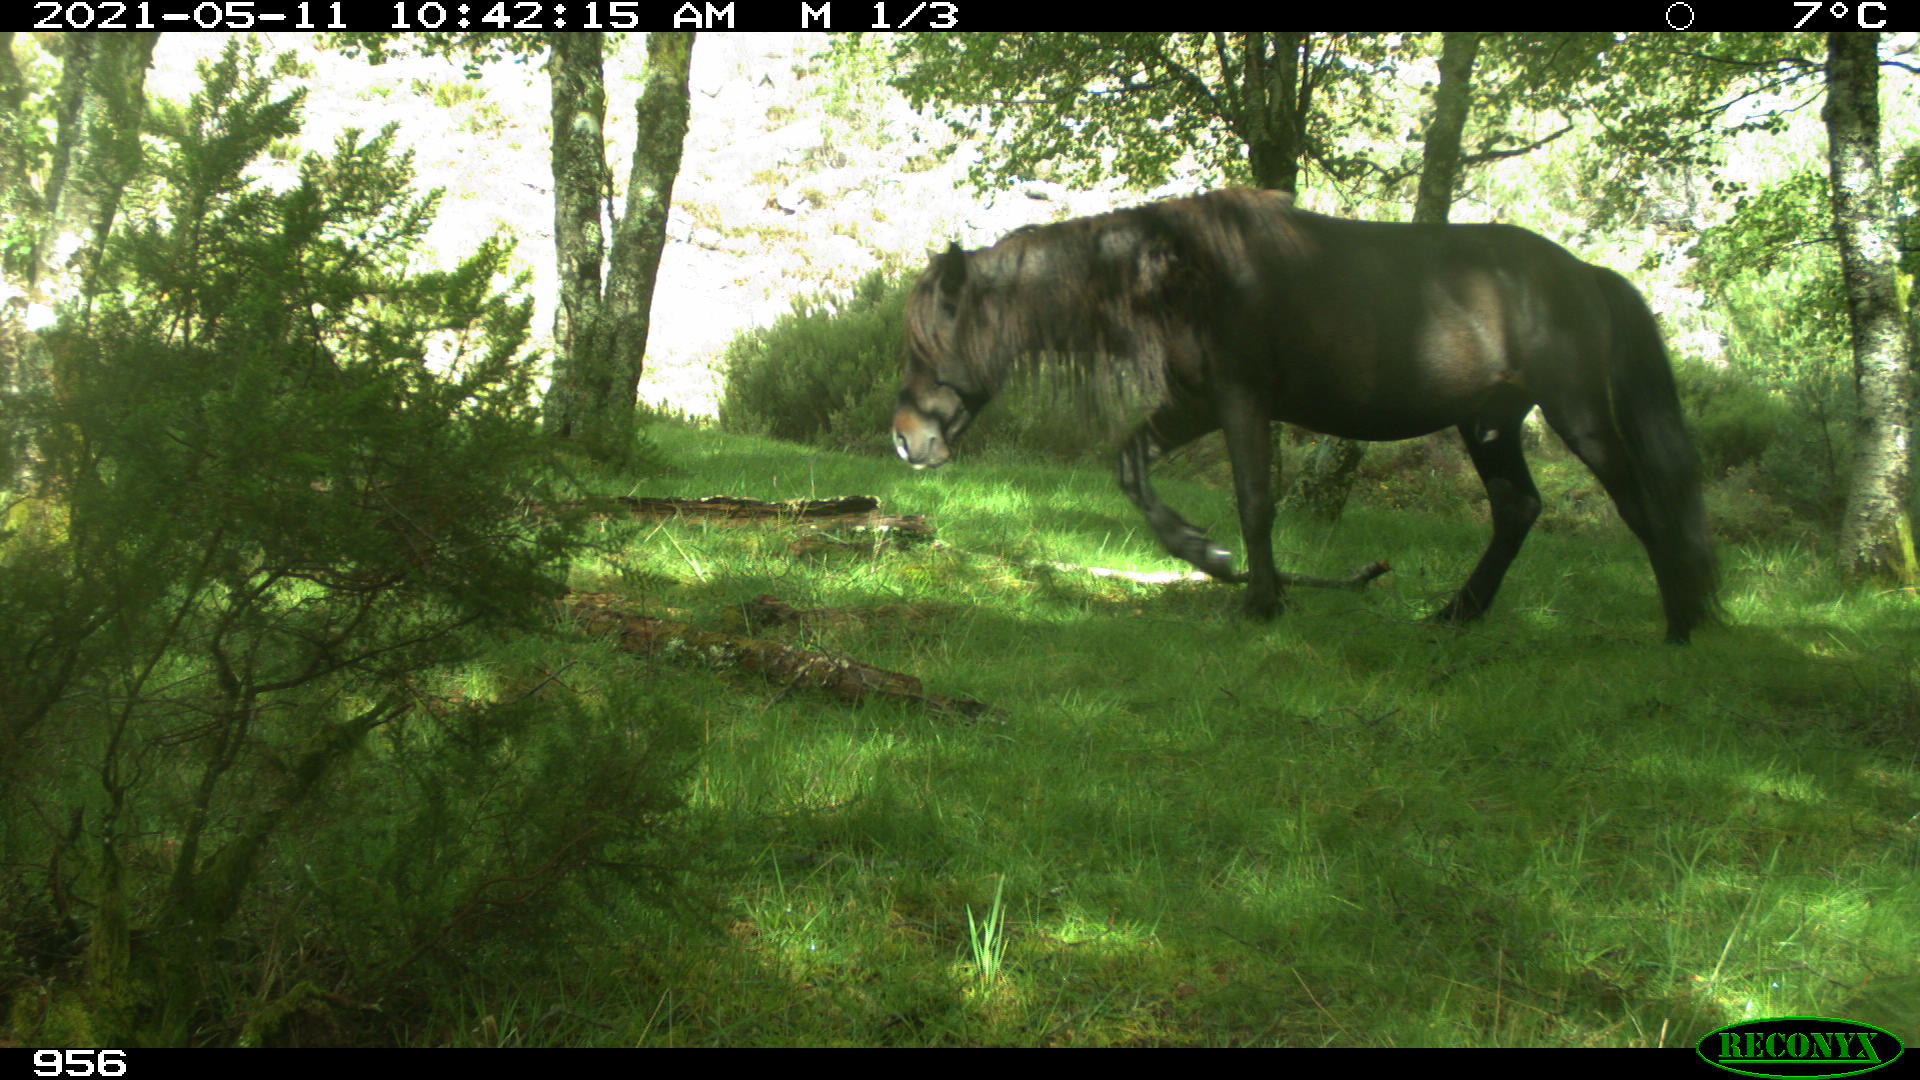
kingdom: Animalia
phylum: Chordata
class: Mammalia
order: Perissodactyla
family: Equidae
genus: Equus
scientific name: Equus caballus
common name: Horse
